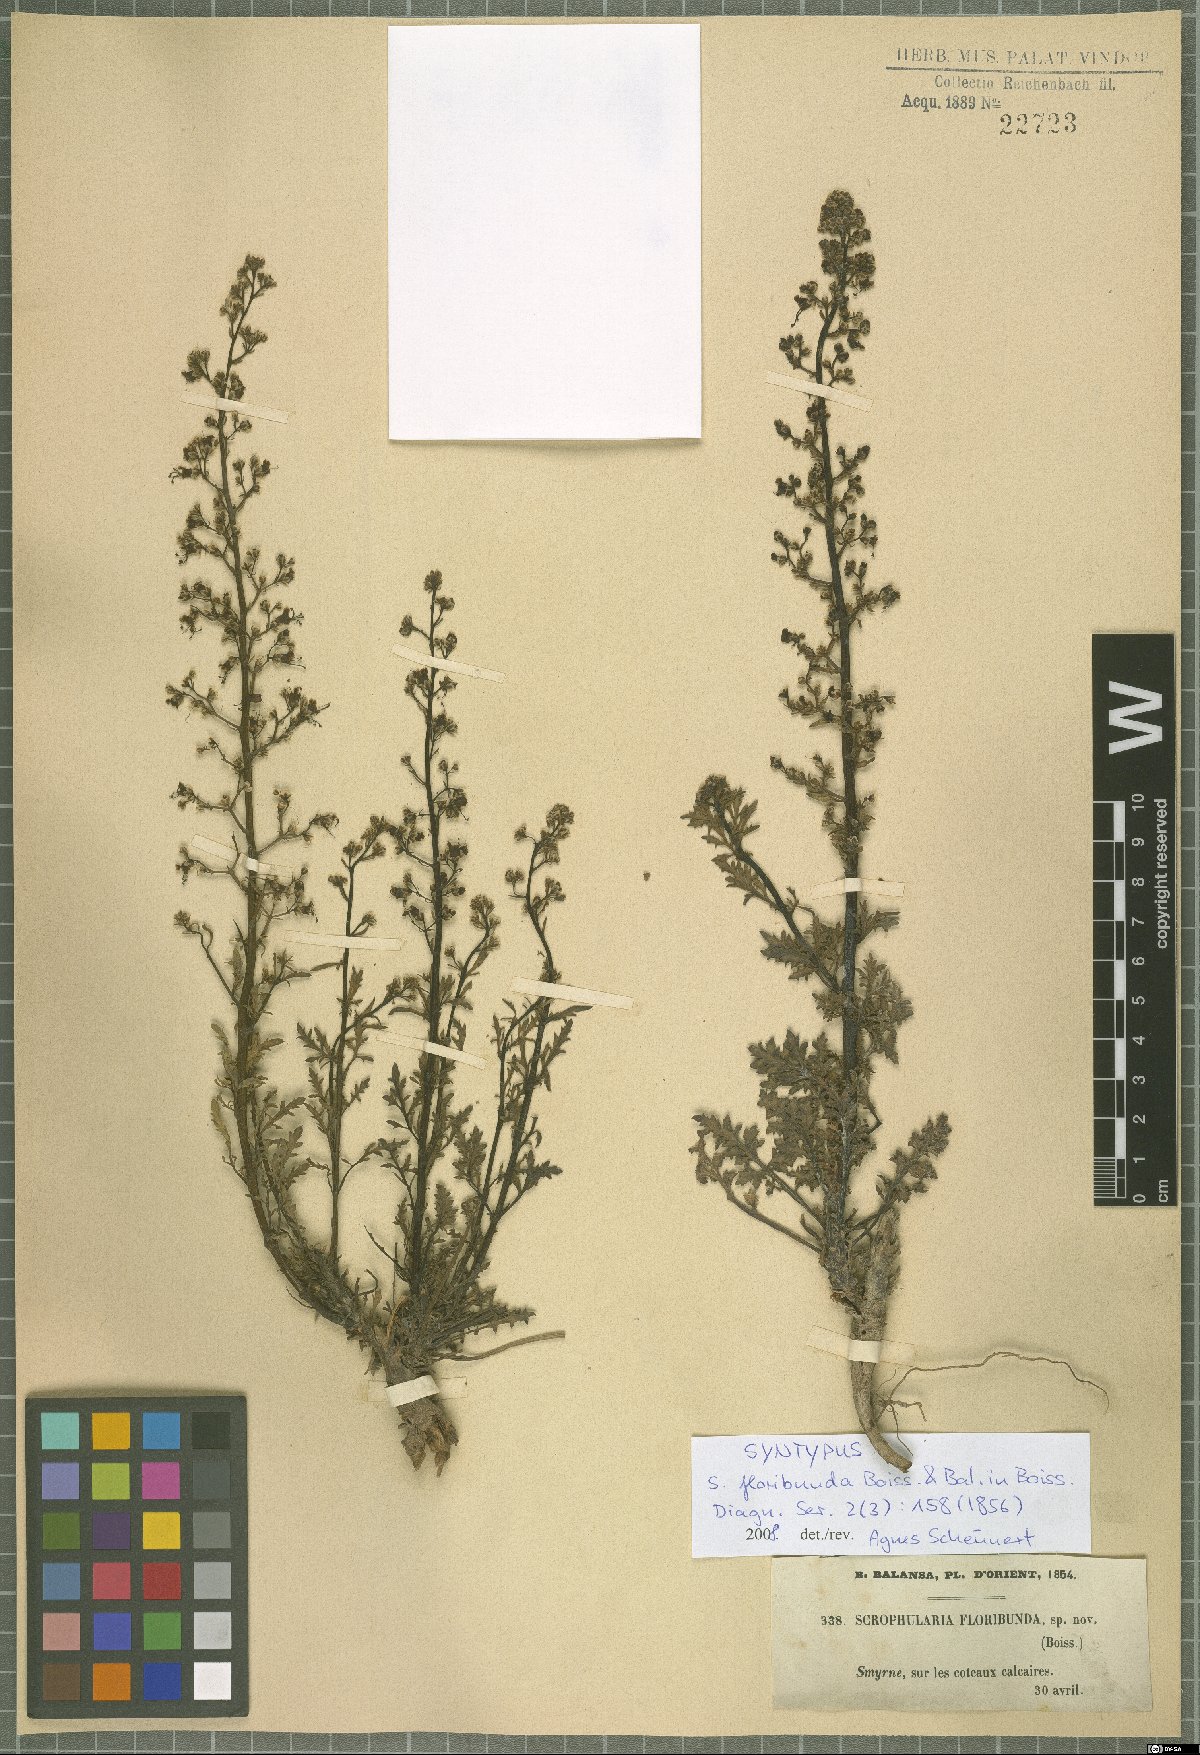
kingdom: Plantae
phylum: Tracheophyta
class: Magnoliopsida
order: Lamiales
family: Scrophulariaceae
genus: Scrophularia
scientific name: Scrophularia floribunda
